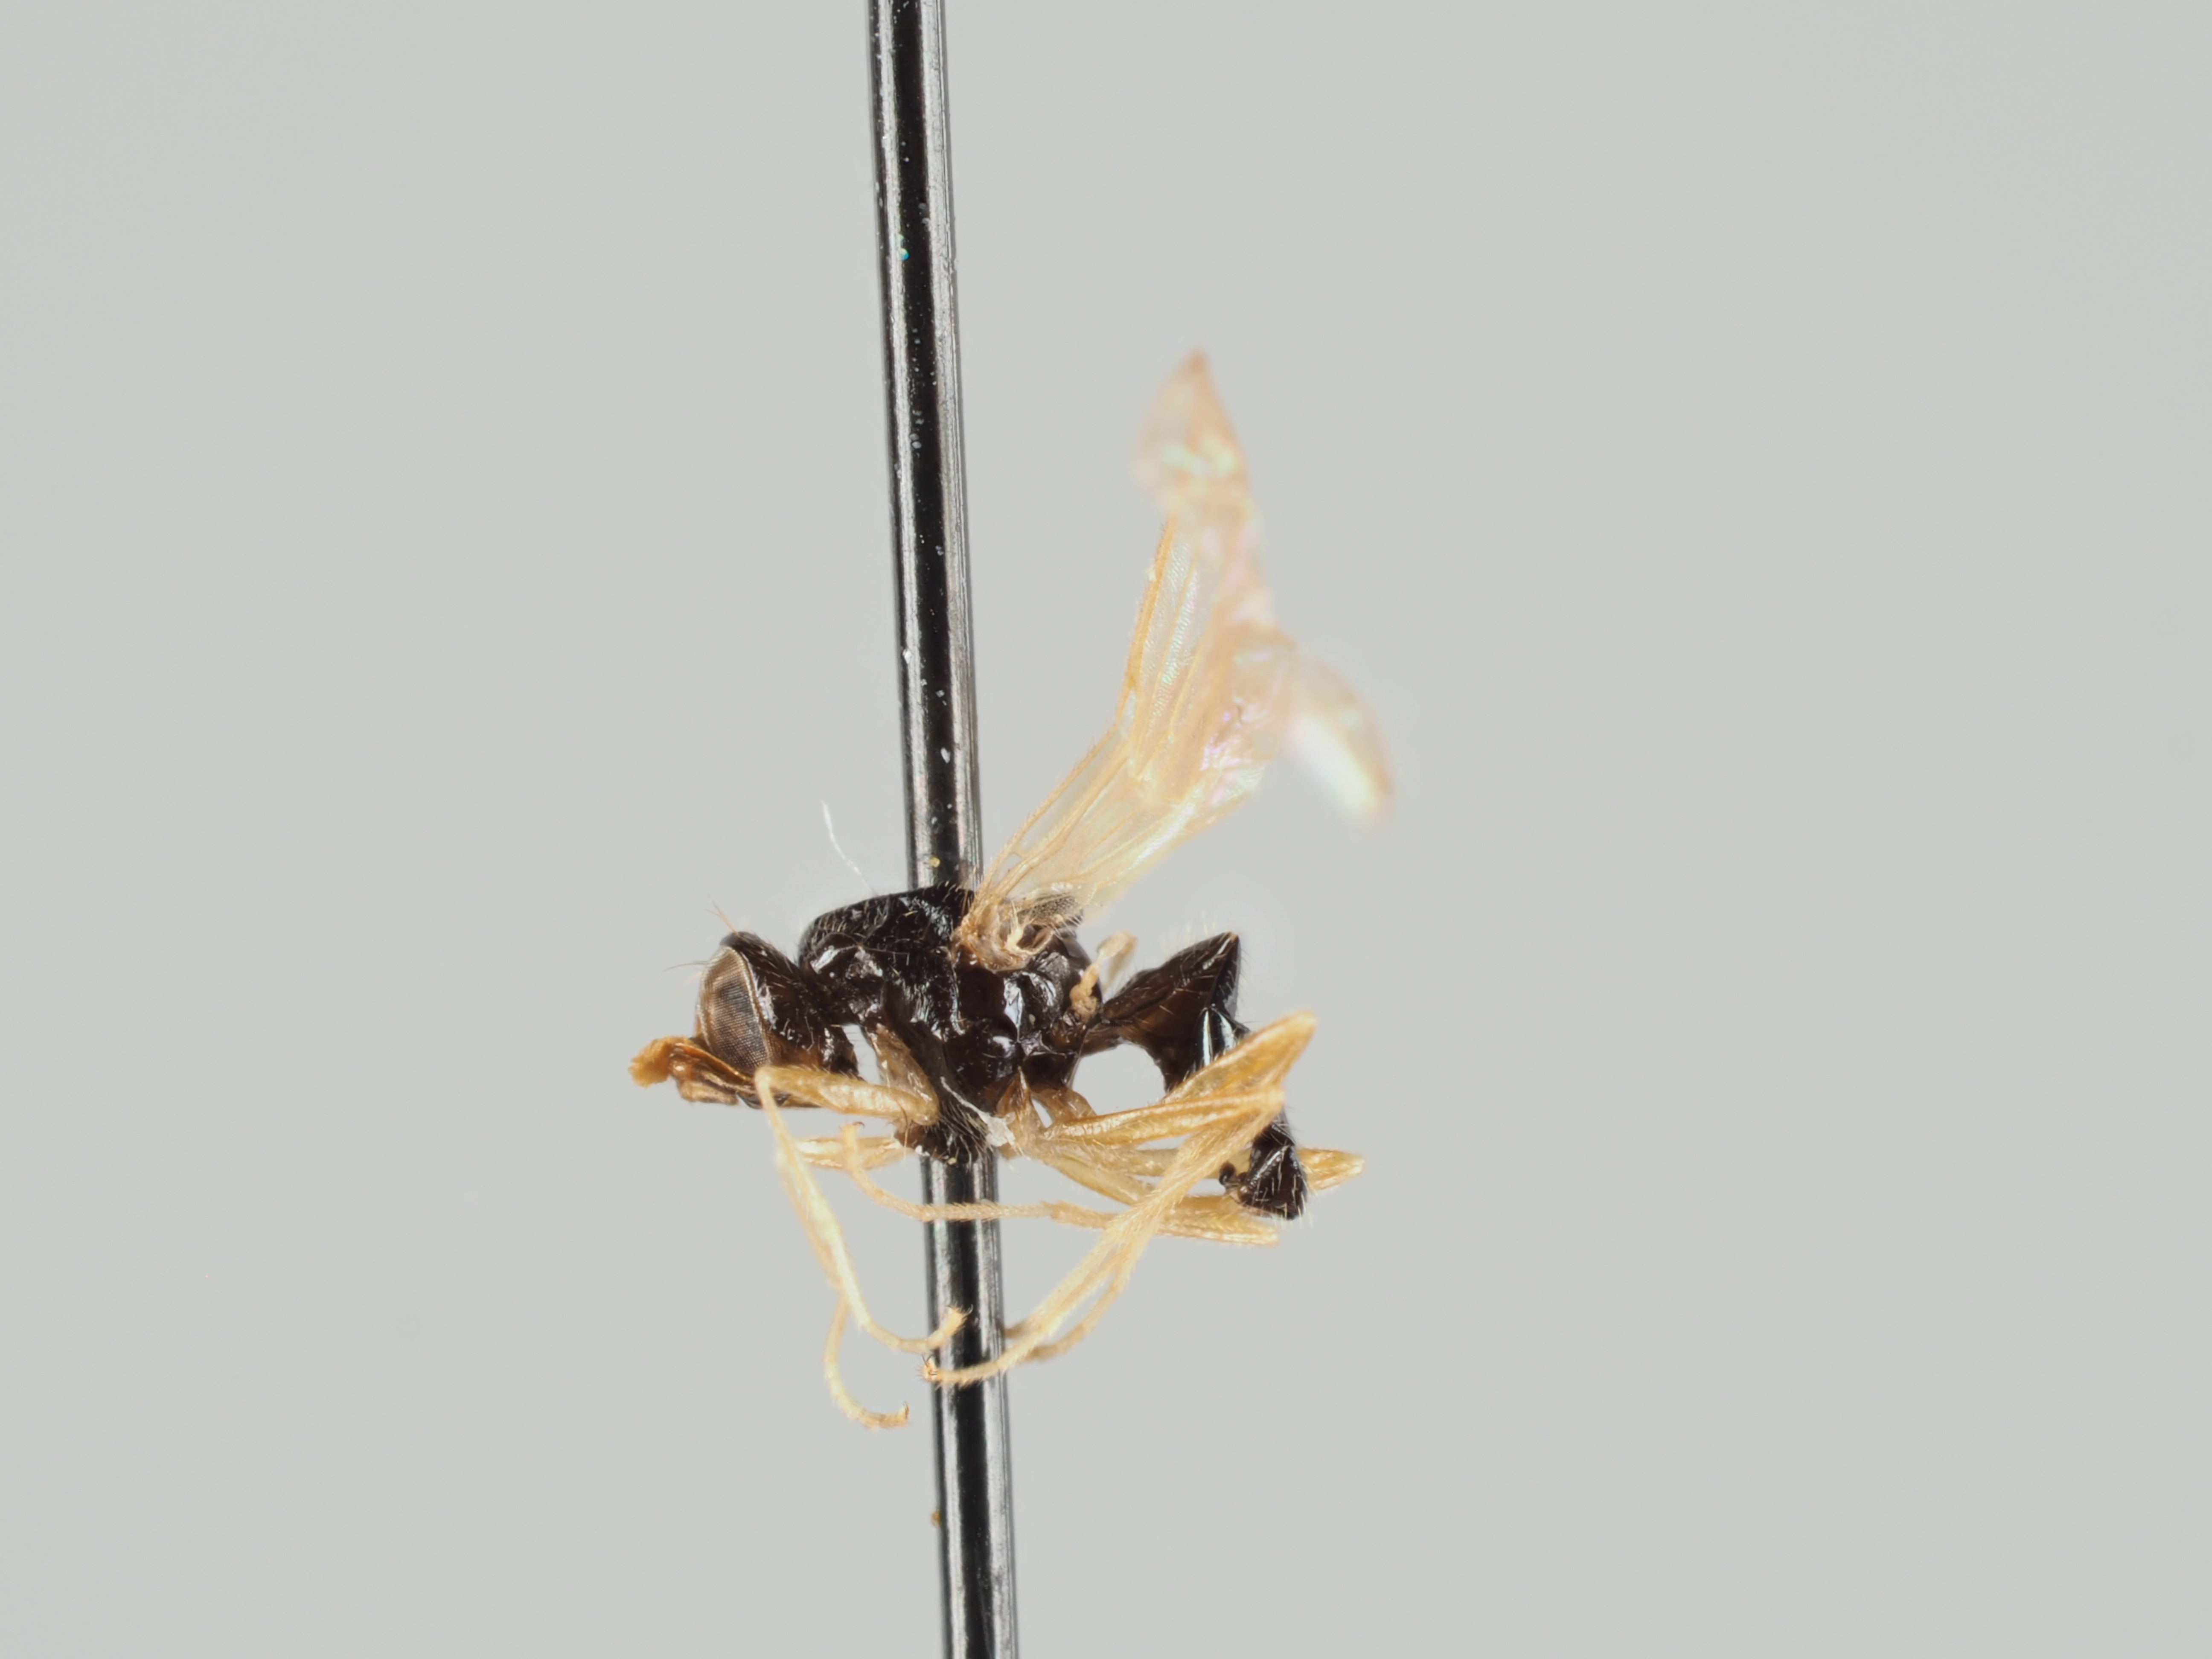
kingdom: Animalia
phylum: Arthropoda
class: Insecta
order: Diptera
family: Psilidae
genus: Psila
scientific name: Psila sibirica
